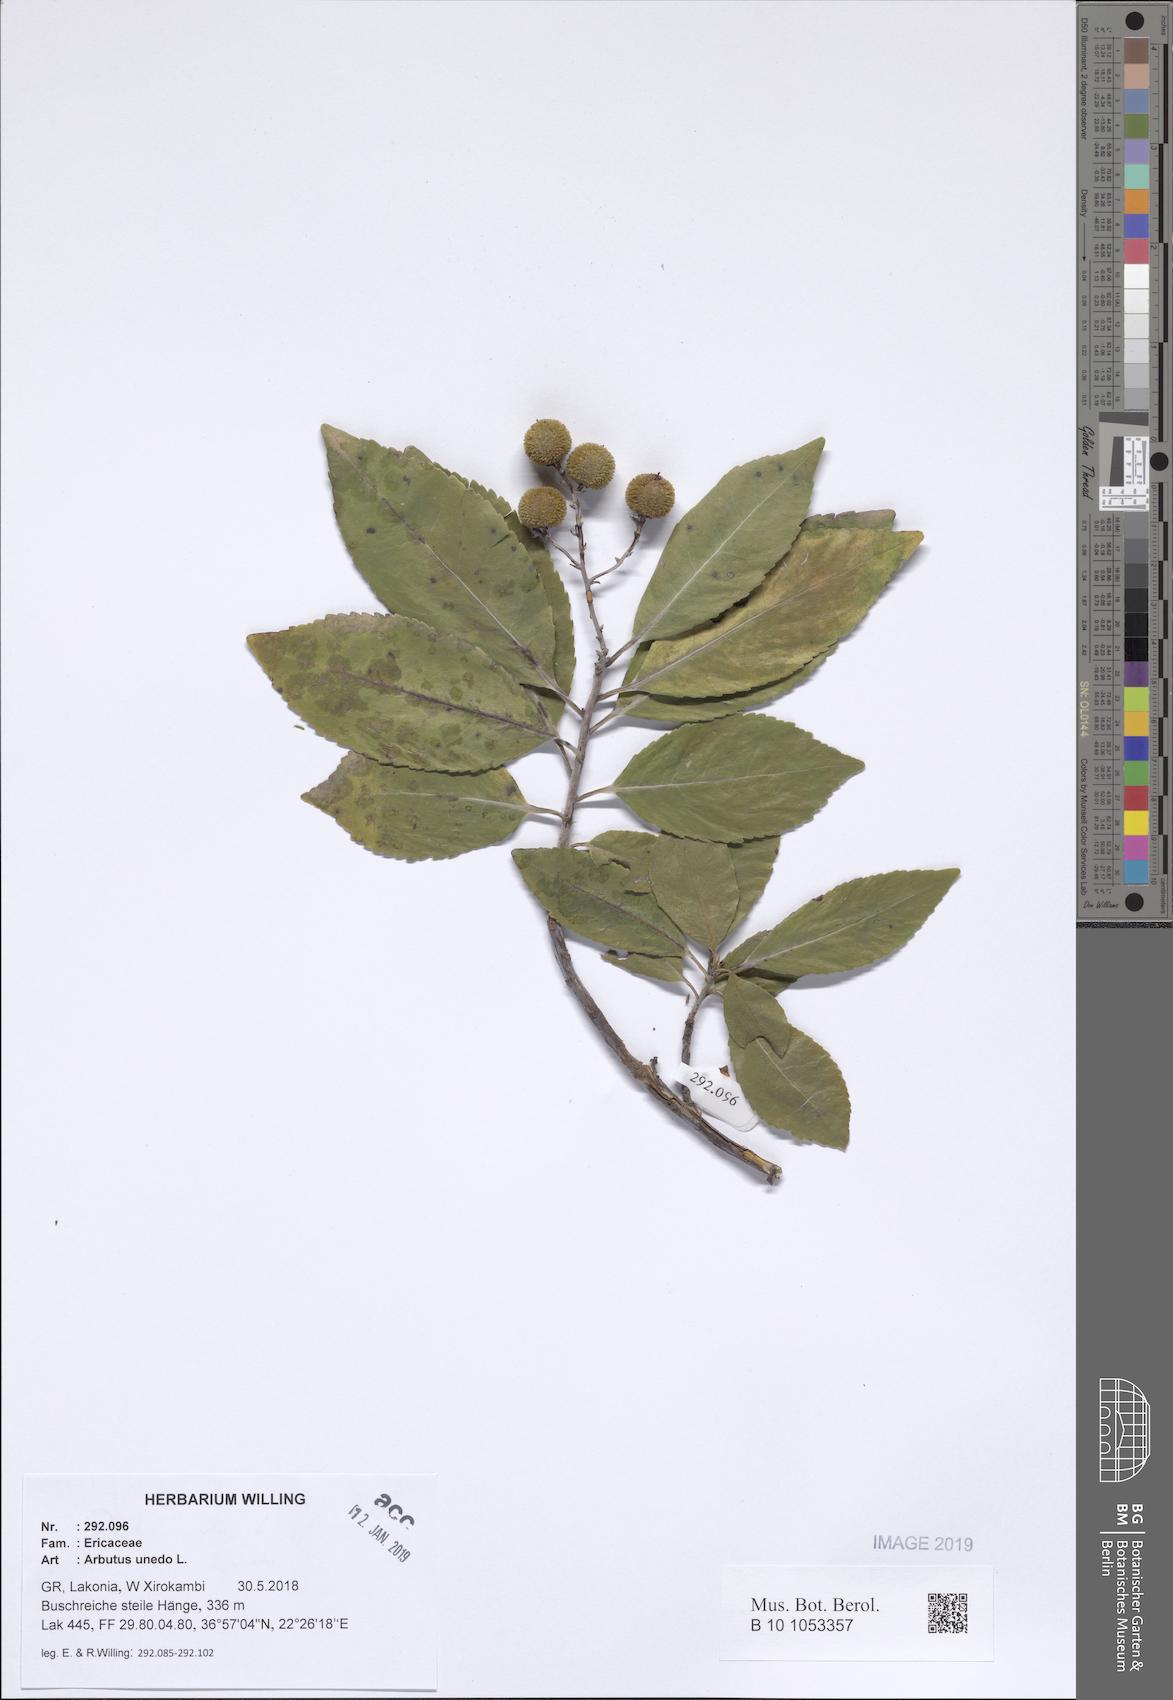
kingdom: Plantae
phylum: Tracheophyta
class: Magnoliopsida
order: Ericales
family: Ericaceae
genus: Arbutus
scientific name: Arbutus unedo
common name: Strawberry-tree
